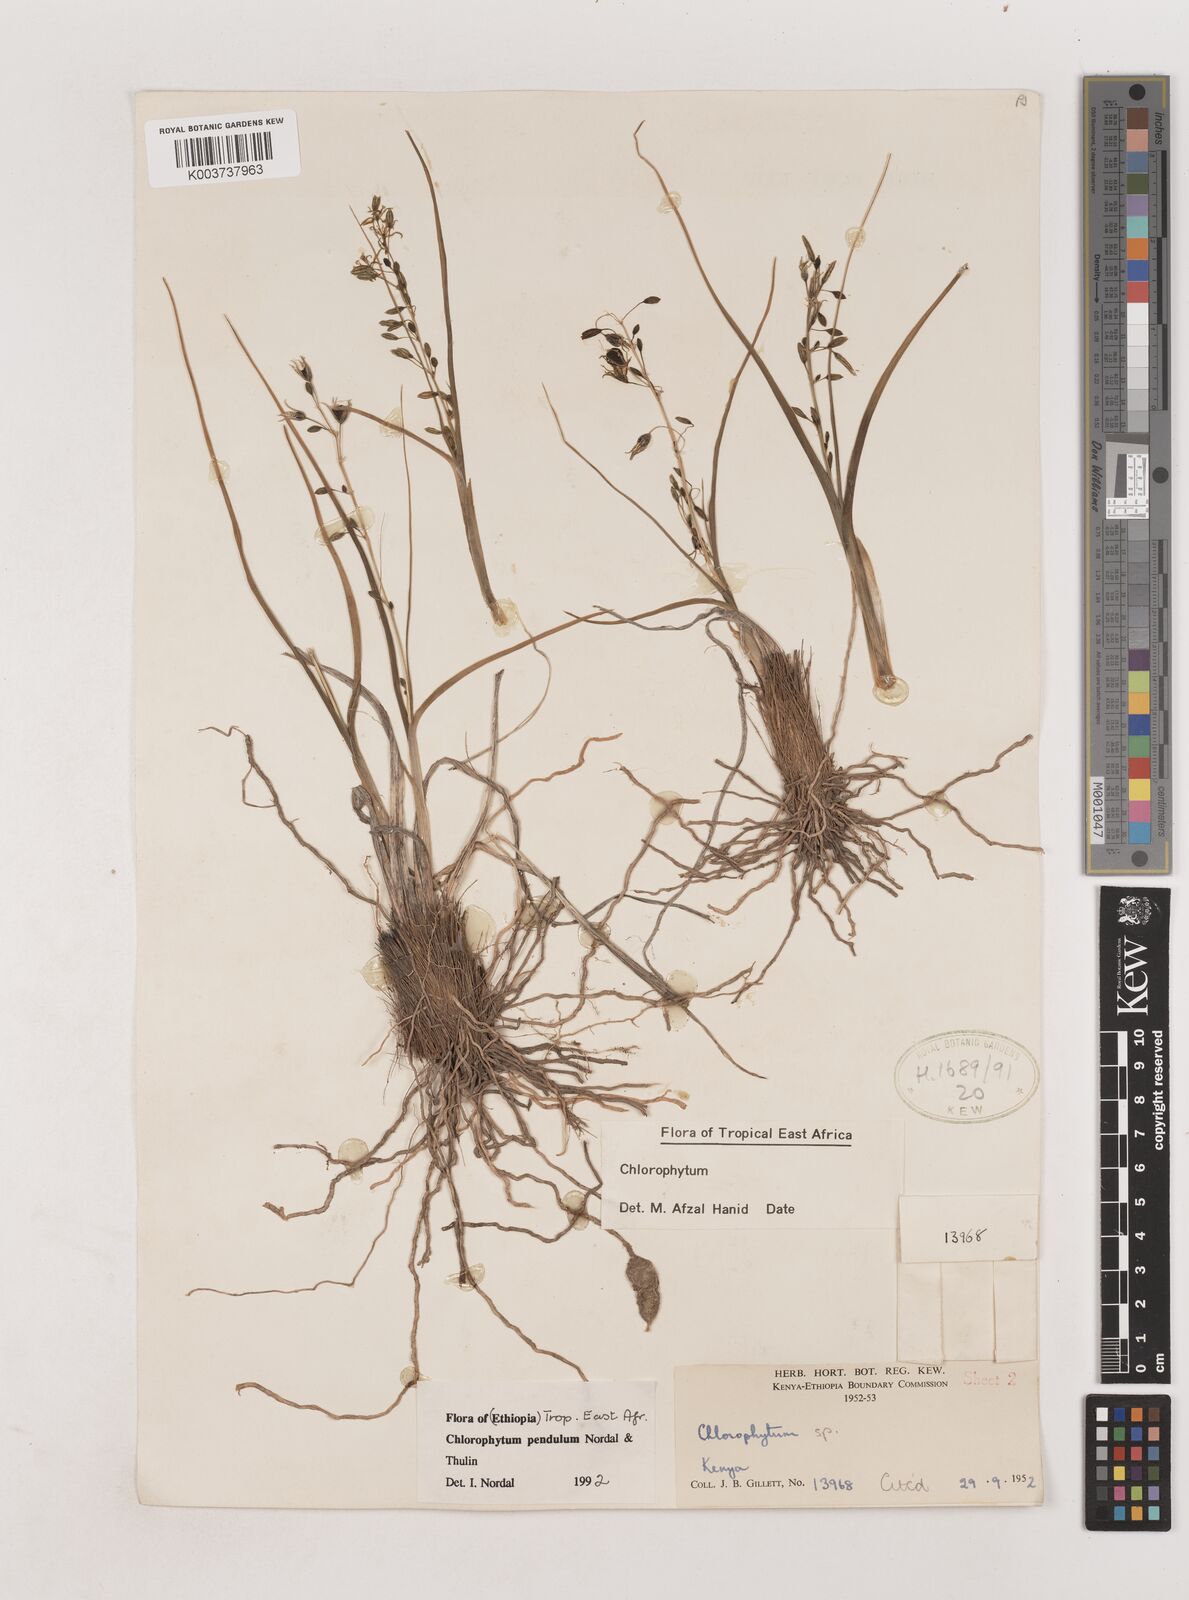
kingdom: Plantae
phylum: Tracheophyta
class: Liliopsida
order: Asparagales
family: Asparagaceae
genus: Chlorophytum
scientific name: Chlorophytum pendulum
